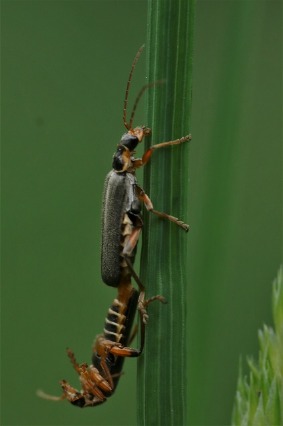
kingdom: Animalia
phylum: Arthropoda
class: Insecta
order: Coleoptera
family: Cantharidae
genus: Cantharis
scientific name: Cantharis nigricans
